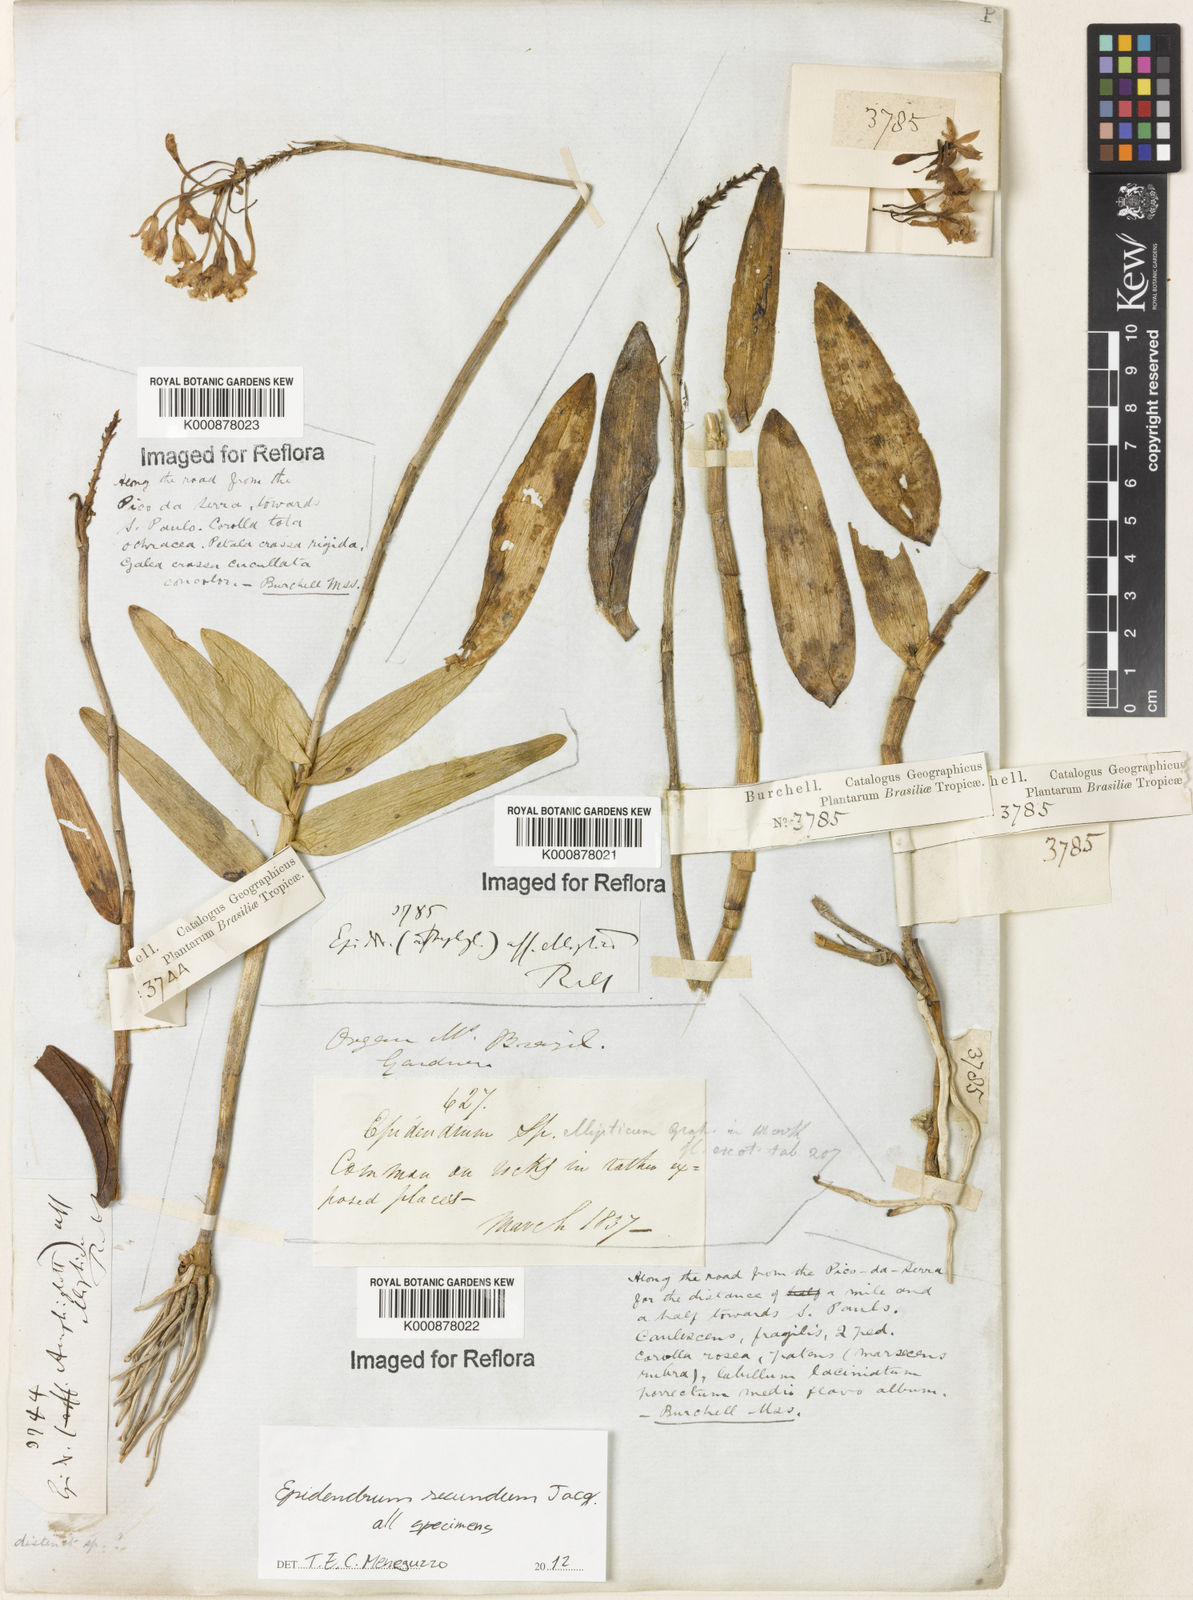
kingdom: Plantae
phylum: Tracheophyta
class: Liliopsida
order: Asparagales
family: Orchidaceae
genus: Epidendrum
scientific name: Epidendrum secundum
